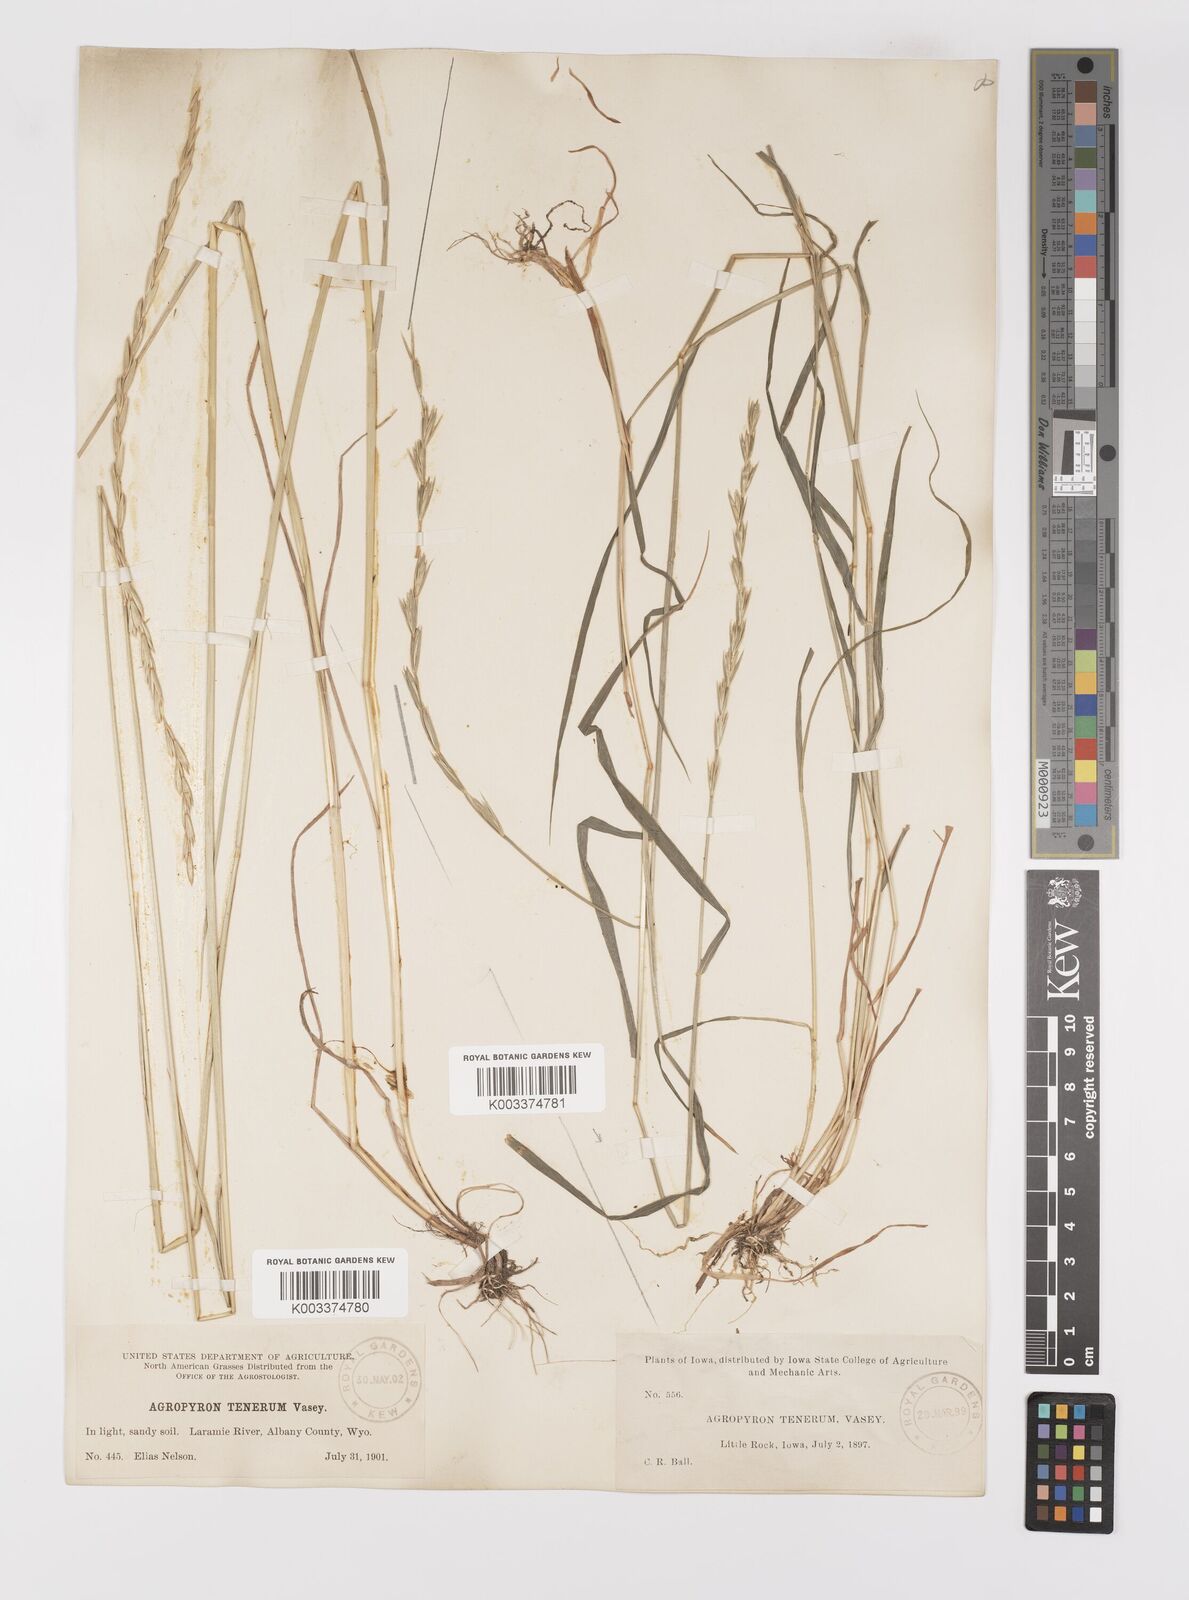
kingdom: Plantae
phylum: Tracheophyta
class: Liliopsida
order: Poales
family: Poaceae
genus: Elymus
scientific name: Elymus violaceus
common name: Arctic wheatgrass
